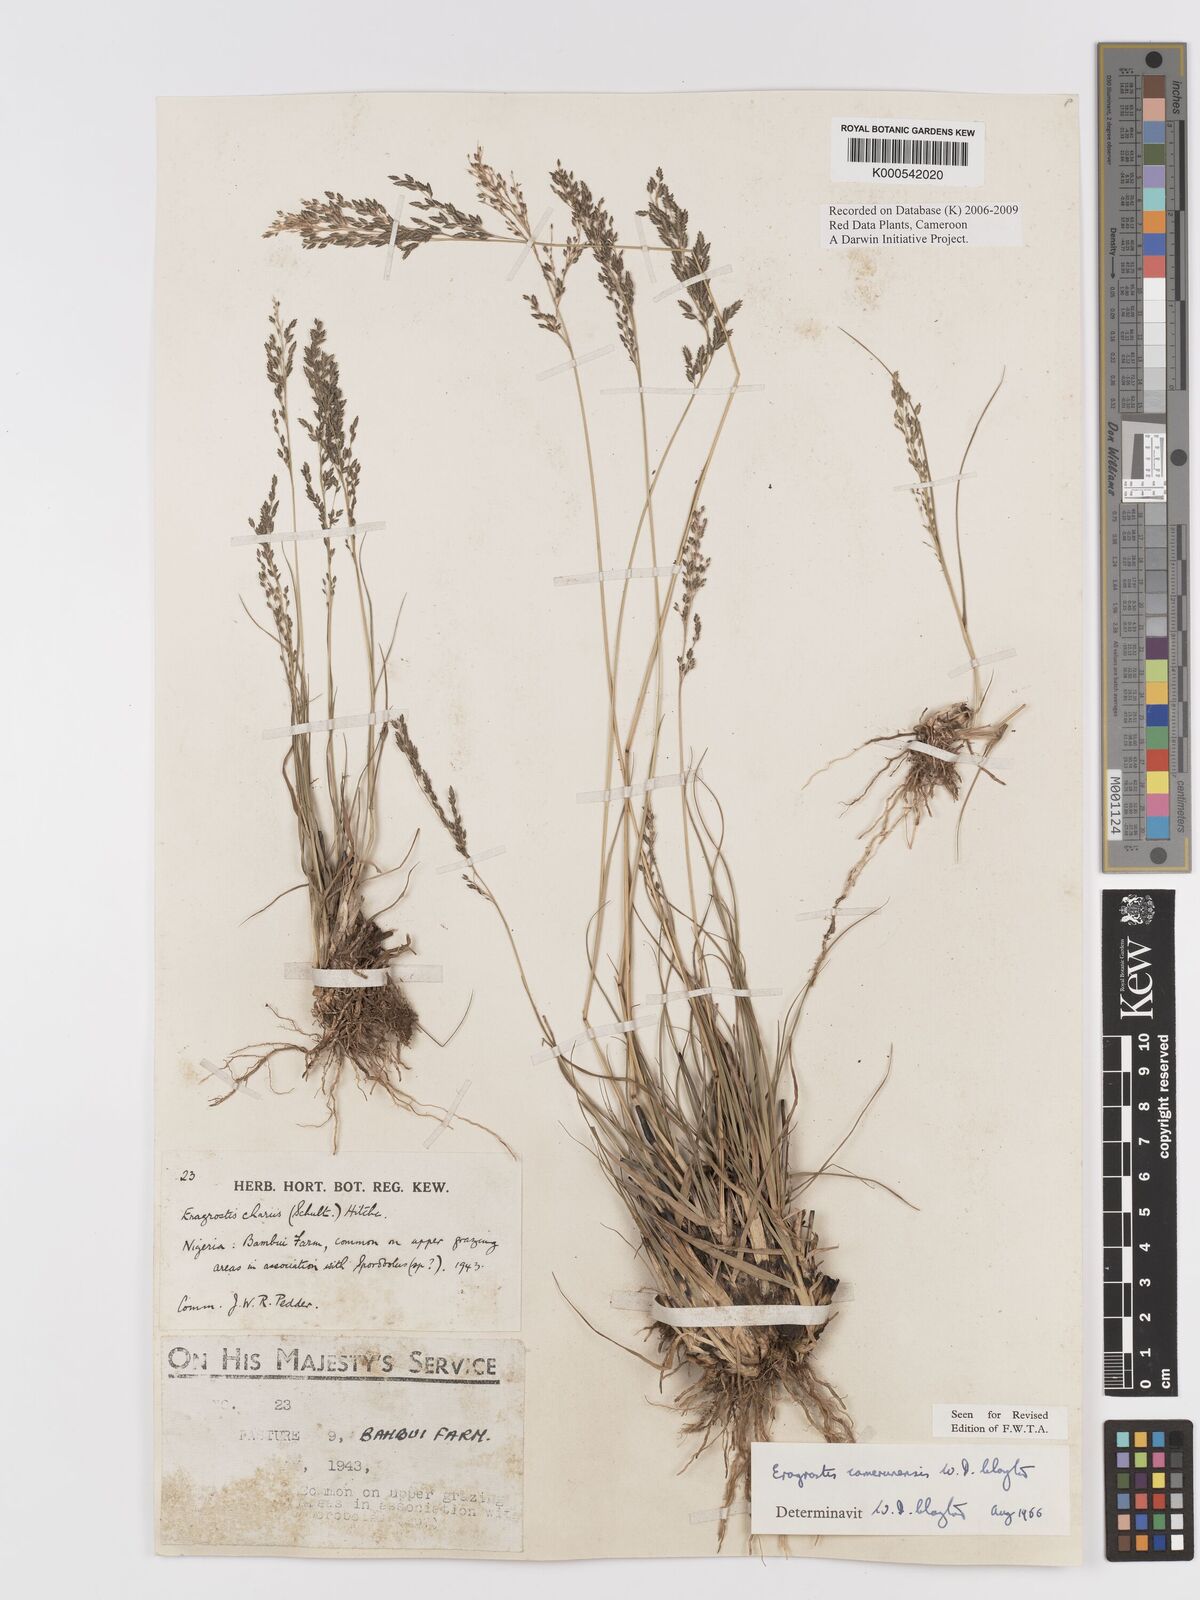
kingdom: Plantae
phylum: Tracheophyta
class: Liliopsida
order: Poales
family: Poaceae
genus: Eragrostis
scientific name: Eragrostis camerunensis
